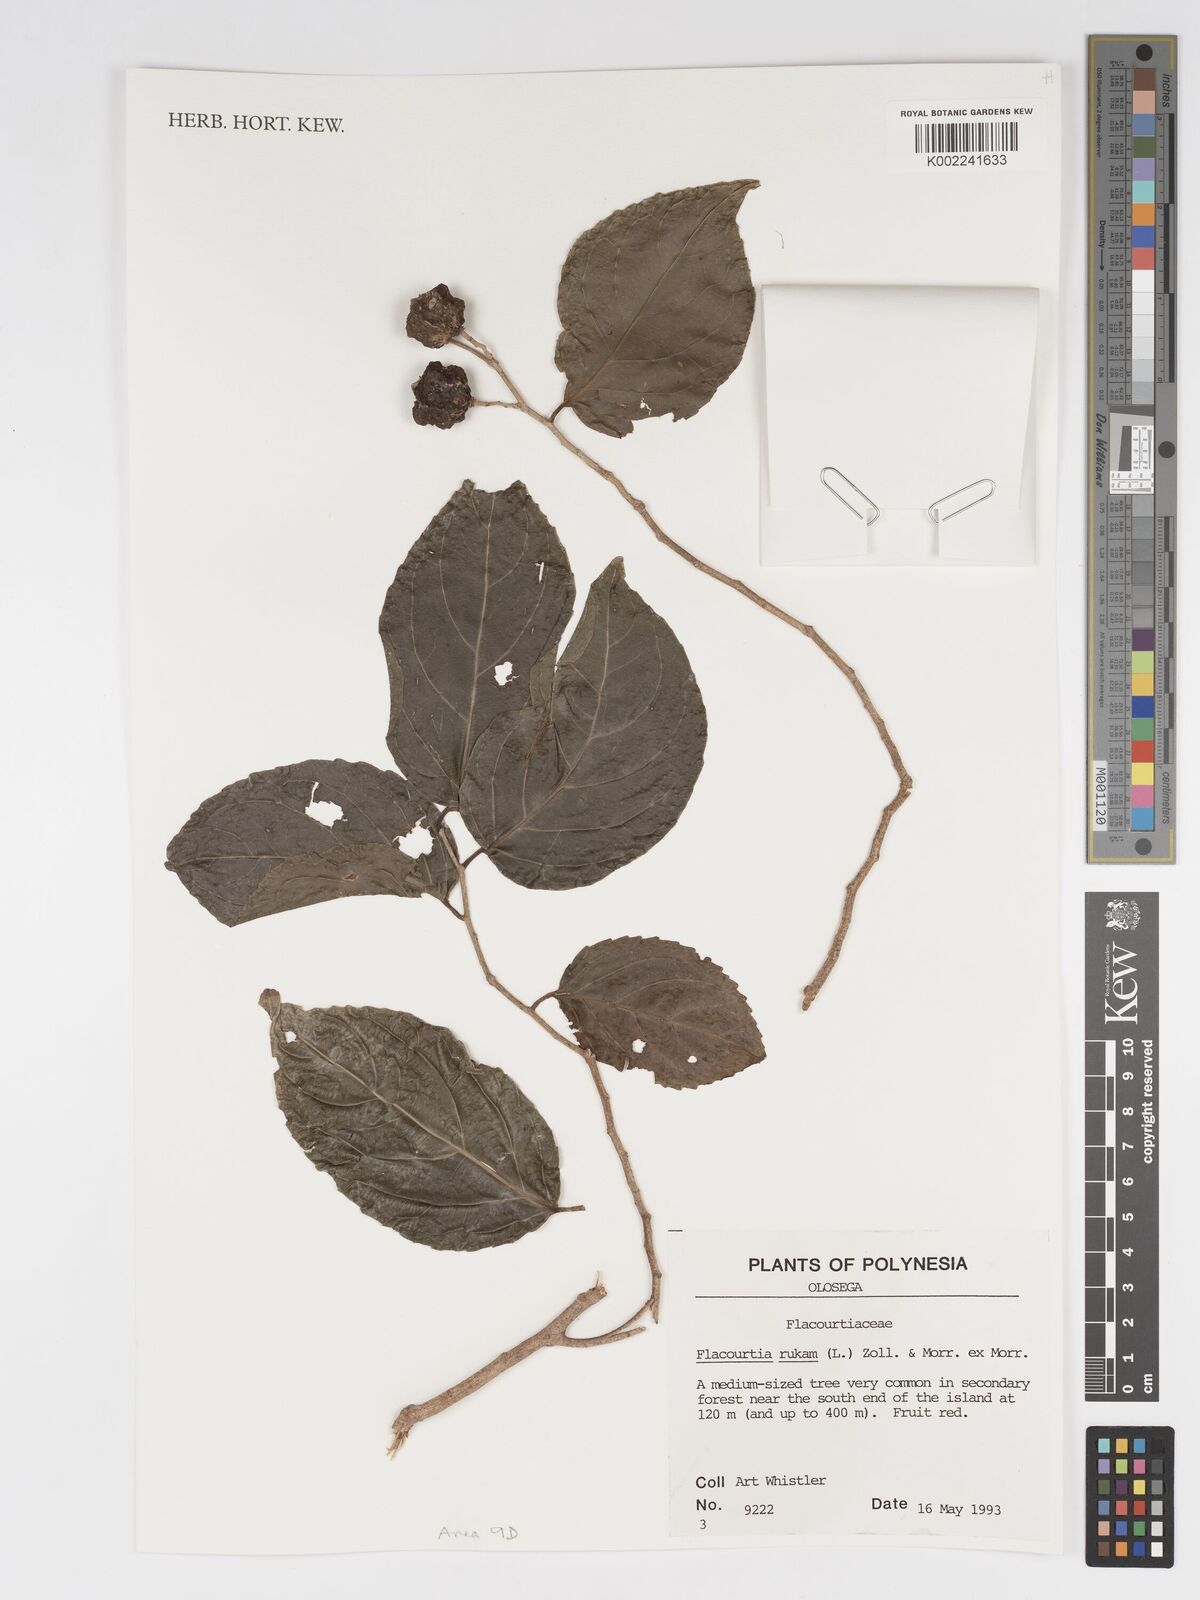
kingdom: Plantae
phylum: Tracheophyta
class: Magnoliopsida
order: Malpighiales
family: Salicaceae
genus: Flacourtia
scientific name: Flacourtia rukam
